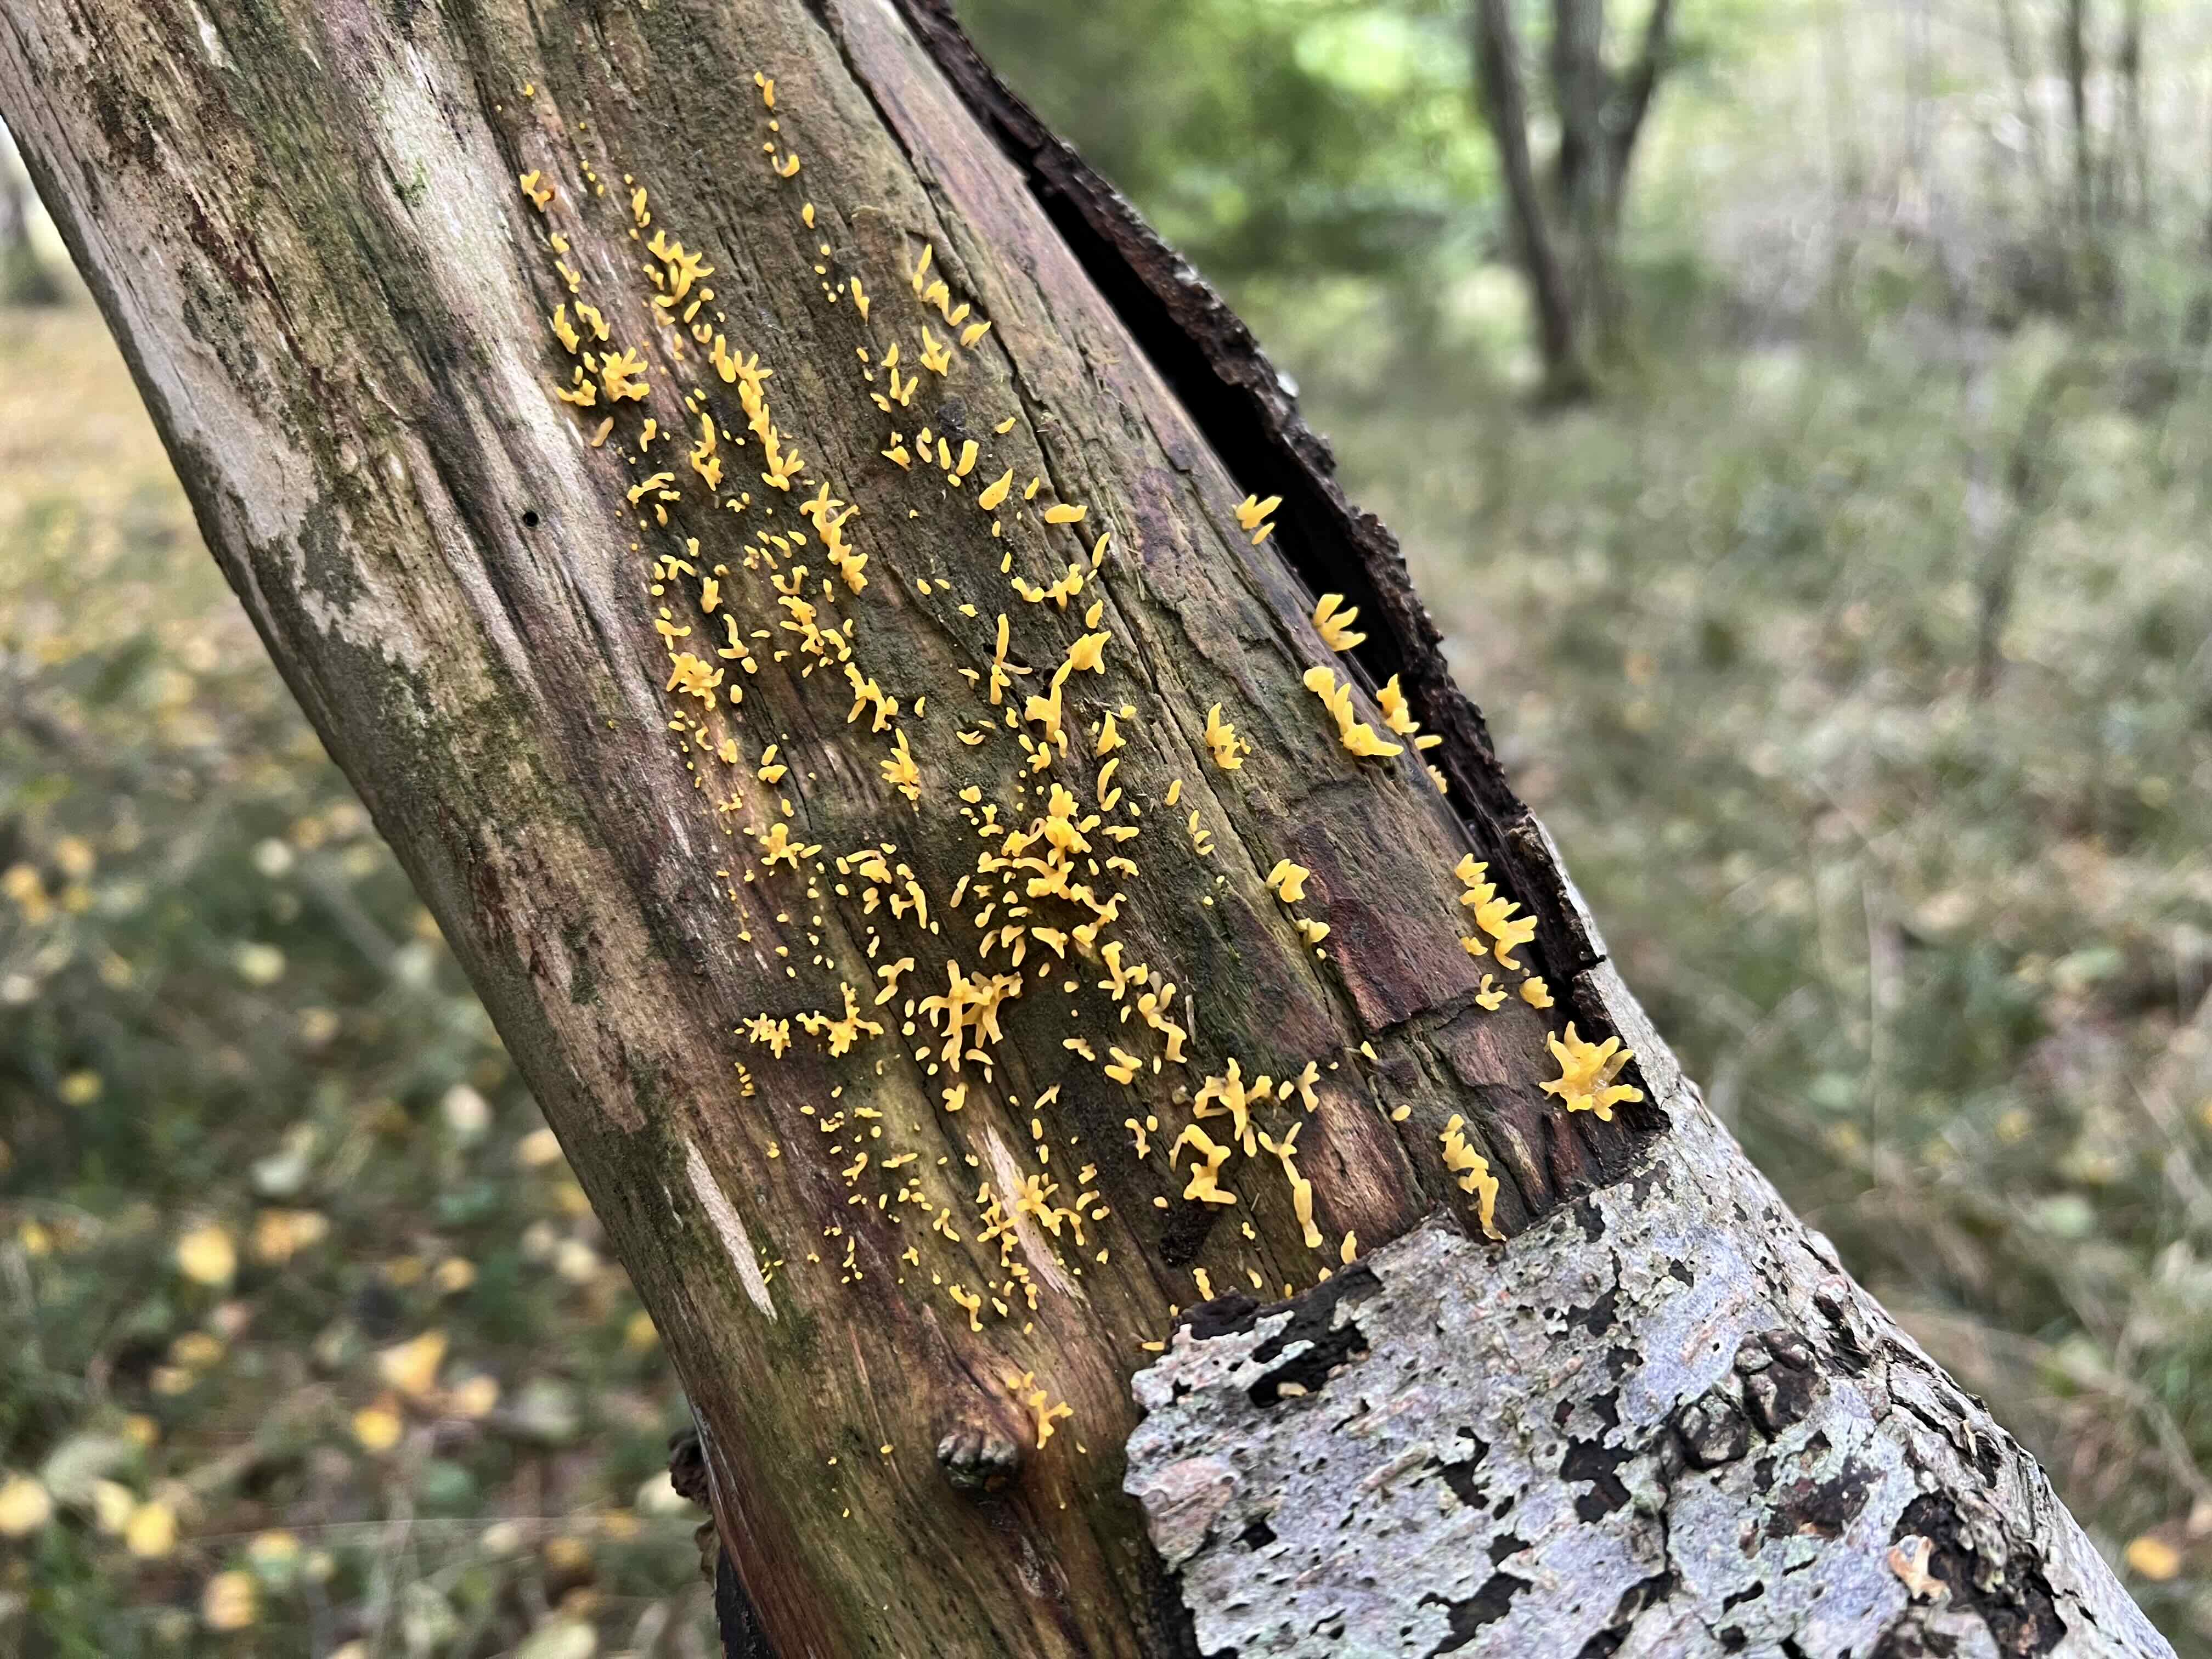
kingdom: Fungi
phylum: Basidiomycota
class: Dacrymycetes
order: Dacrymycetales
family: Dacrymycetaceae
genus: Calocera
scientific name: Calocera cornea
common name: liden guldgaffel
